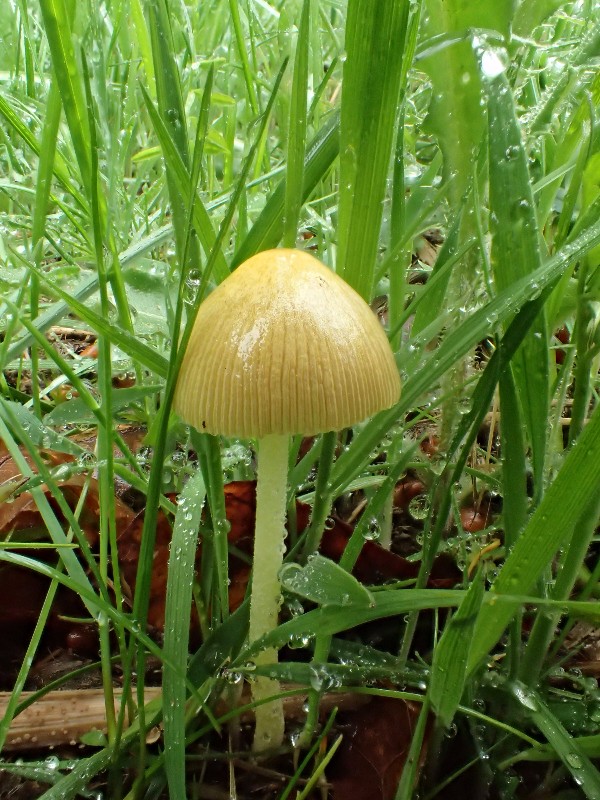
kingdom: Fungi
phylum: Basidiomycota
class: Agaricomycetes
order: Agaricales
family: Bolbitiaceae
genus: Bolbitius
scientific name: Bolbitius titubans
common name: almindelig gulhat
